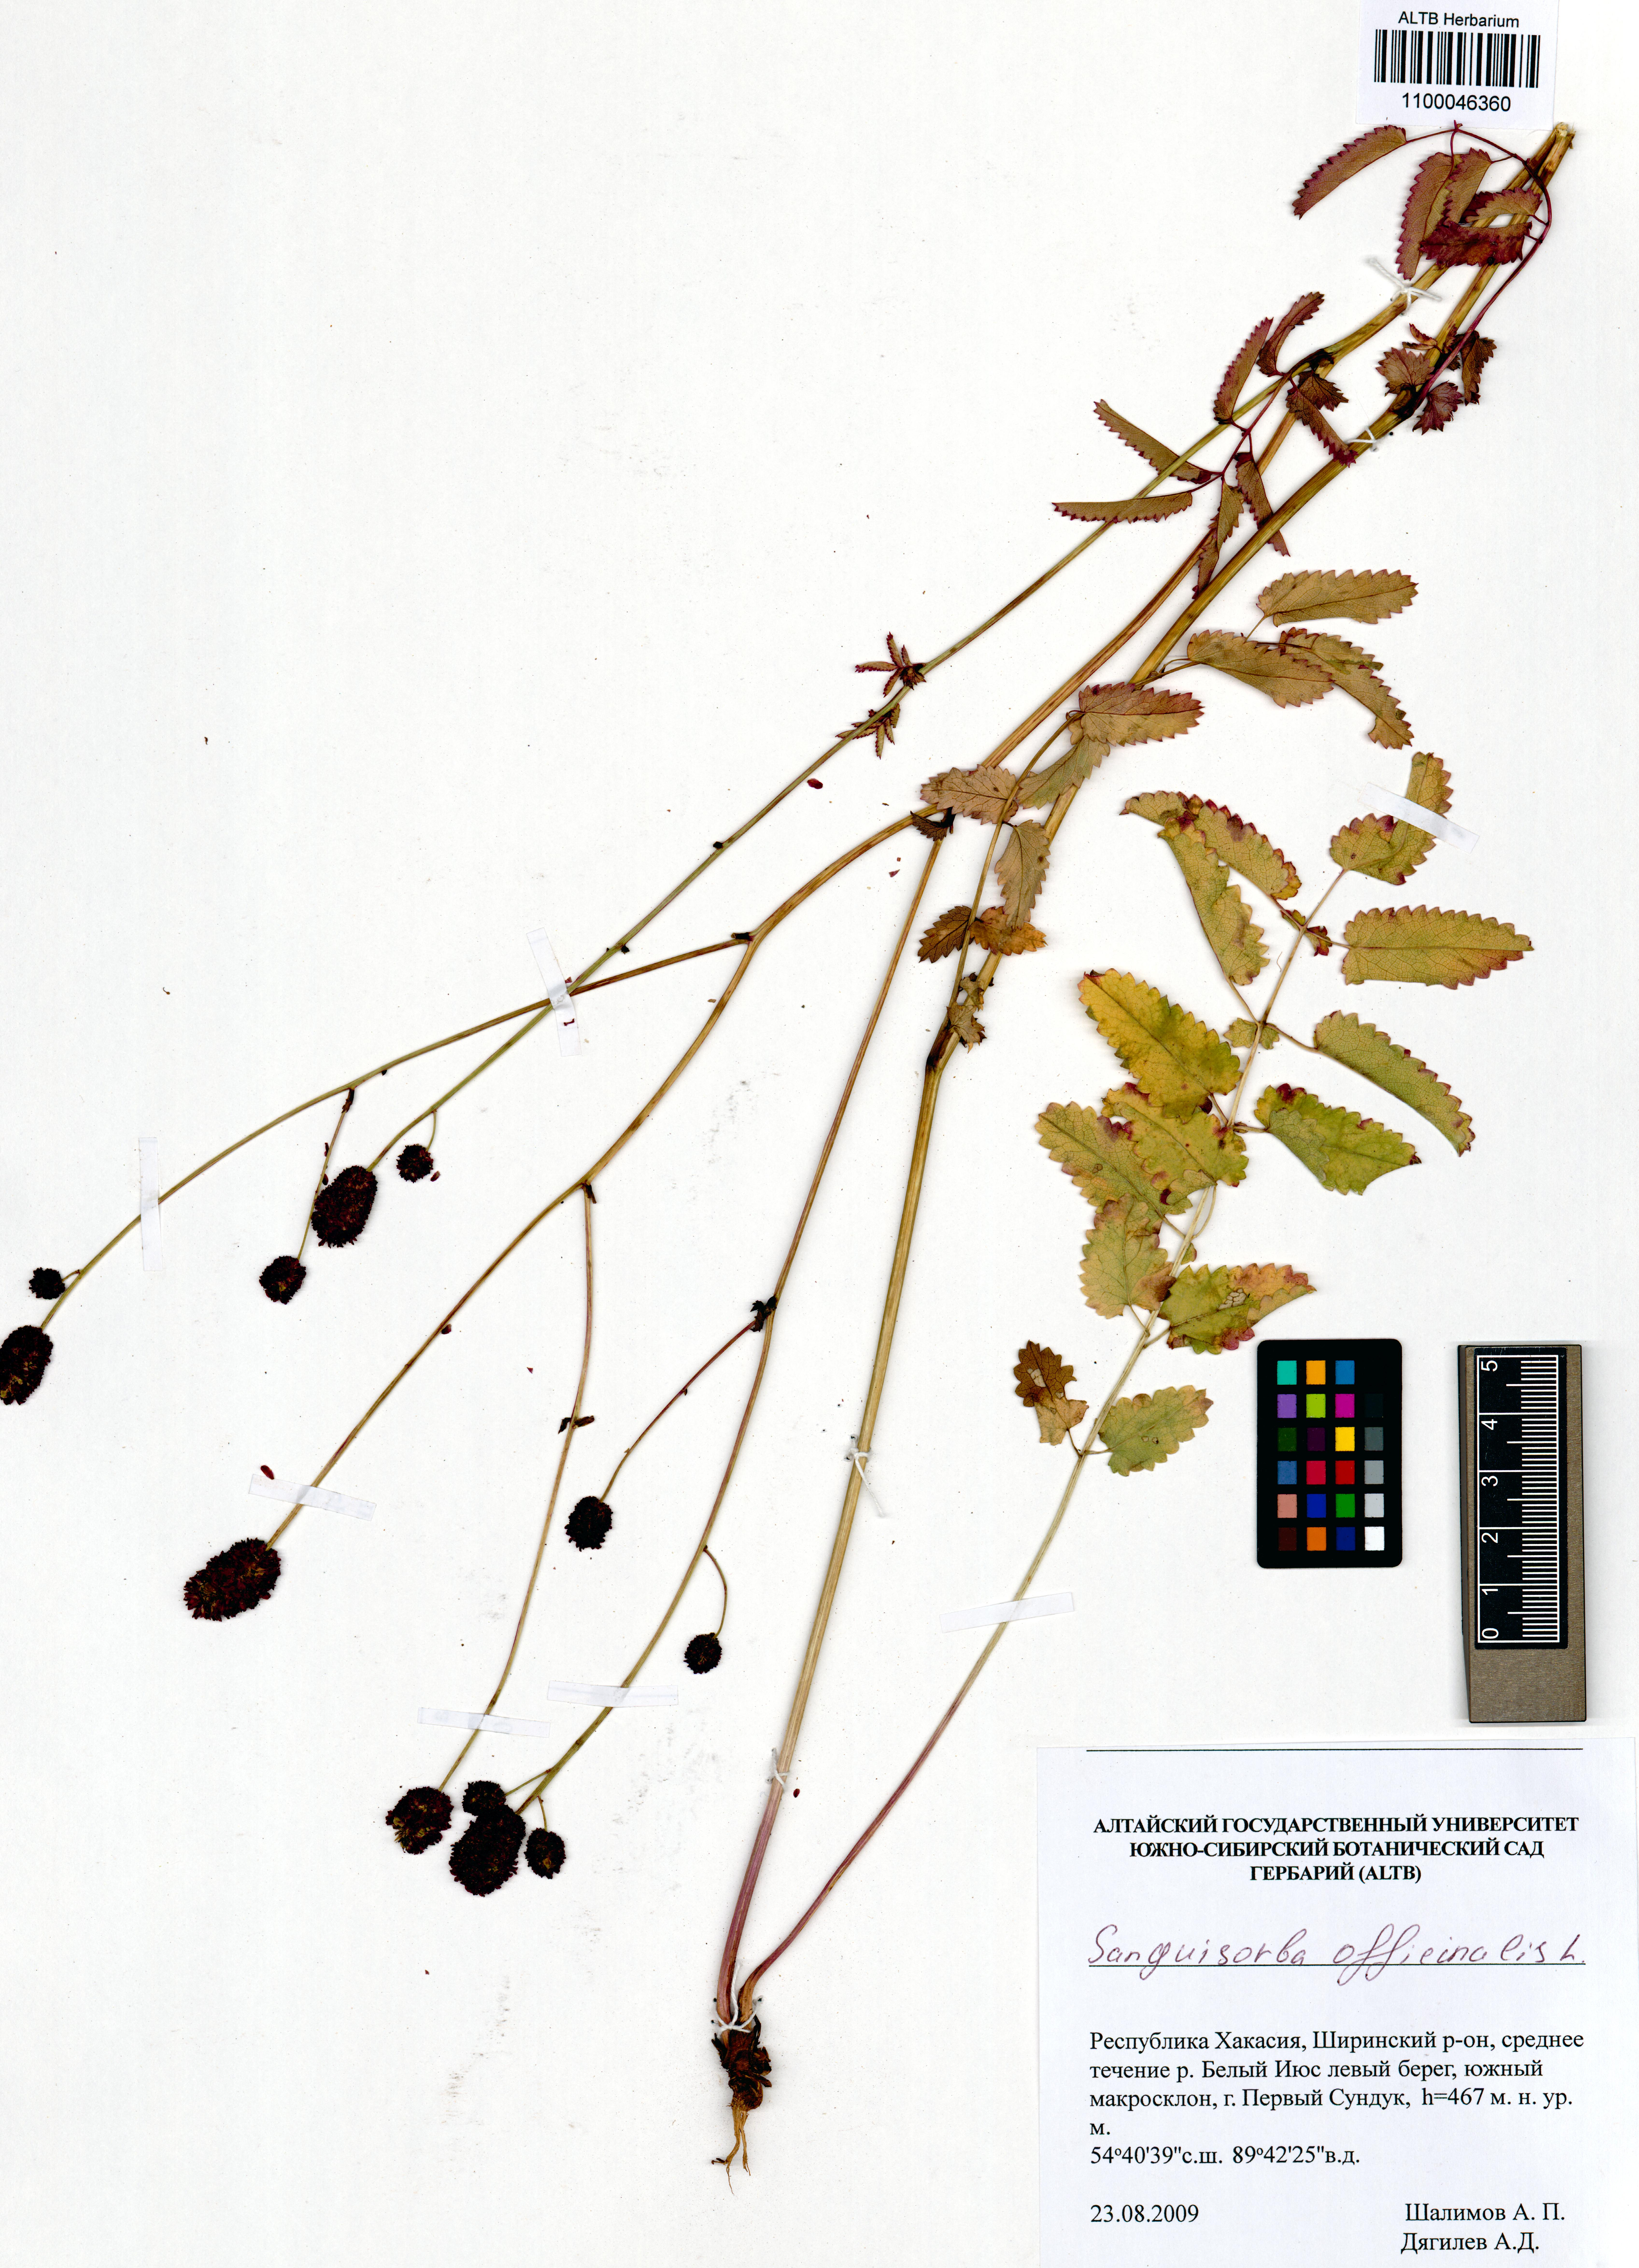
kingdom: Plantae
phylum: Tracheophyta
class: Magnoliopsida
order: Rosales
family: Rosaceae
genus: Sanguisorba
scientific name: Sanguisorba officinalis
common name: Great burnet
